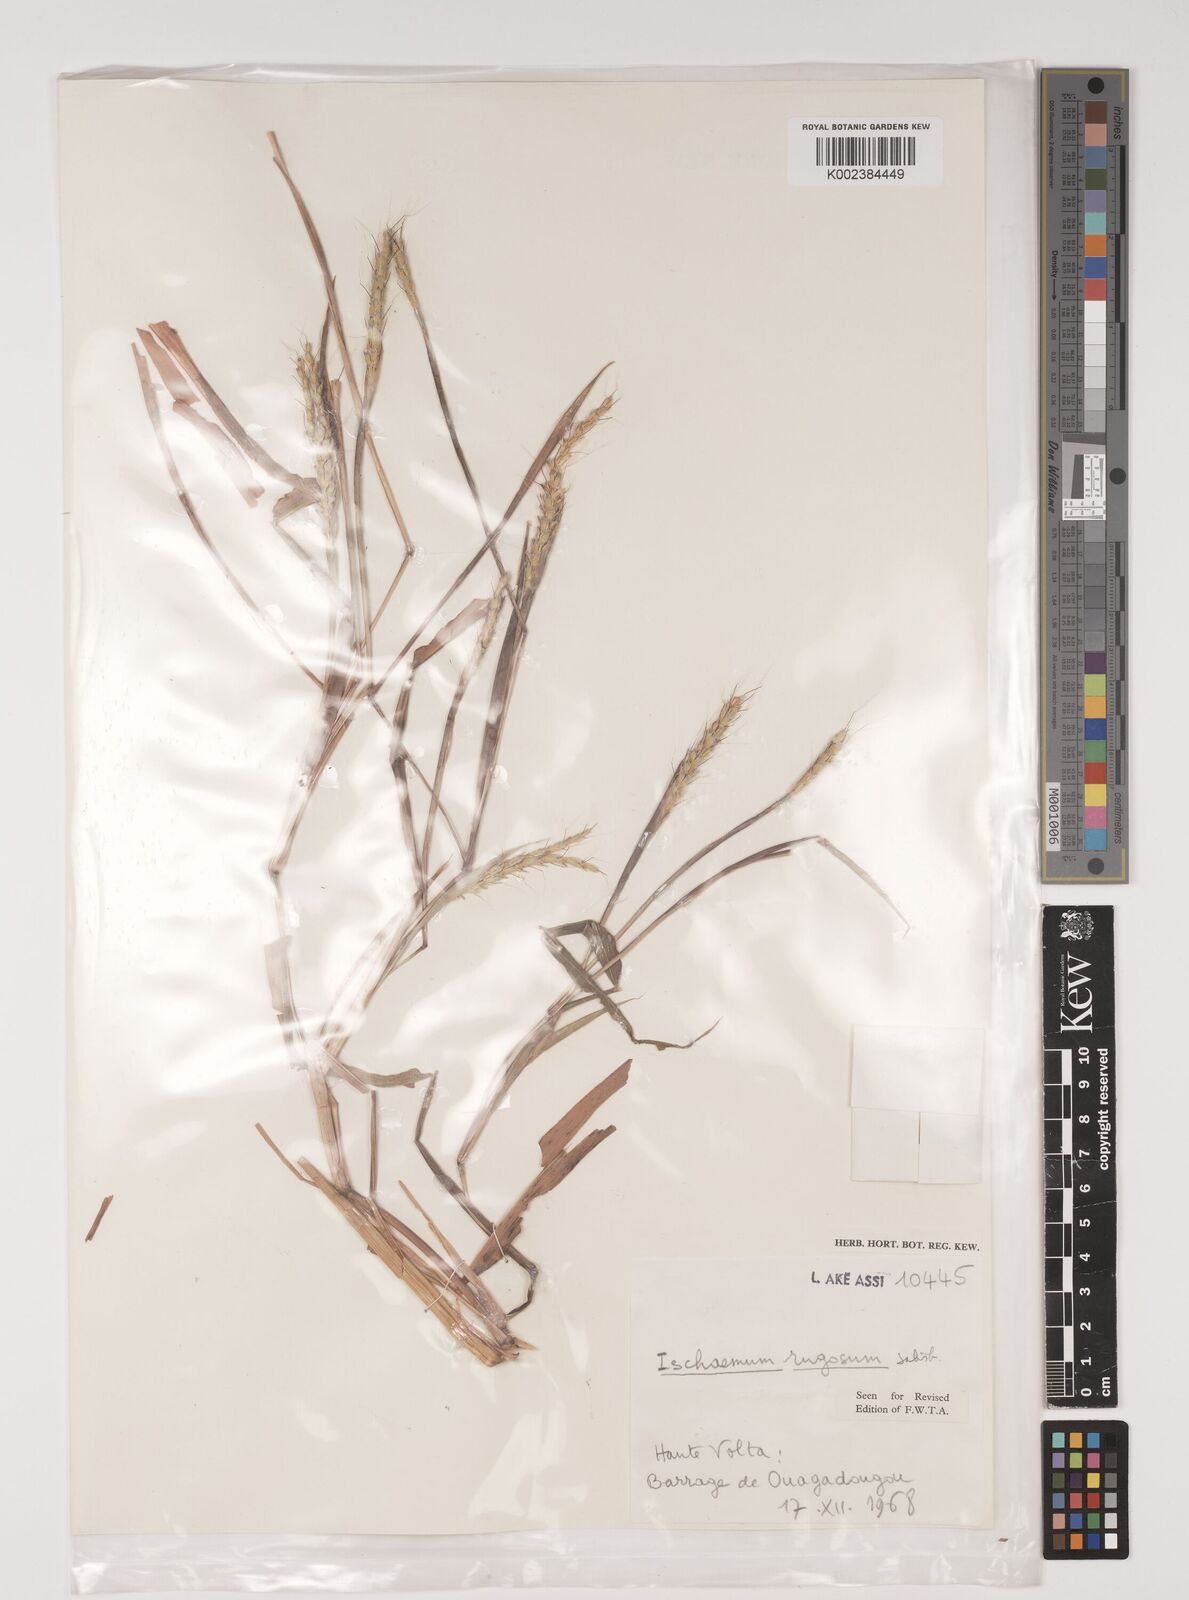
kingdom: Plantae
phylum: Tracheophyta
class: Liliopsida
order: Poales
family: Poaceae
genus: Ischaemum
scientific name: Ischaemum rugosum
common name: Saramatta grass
